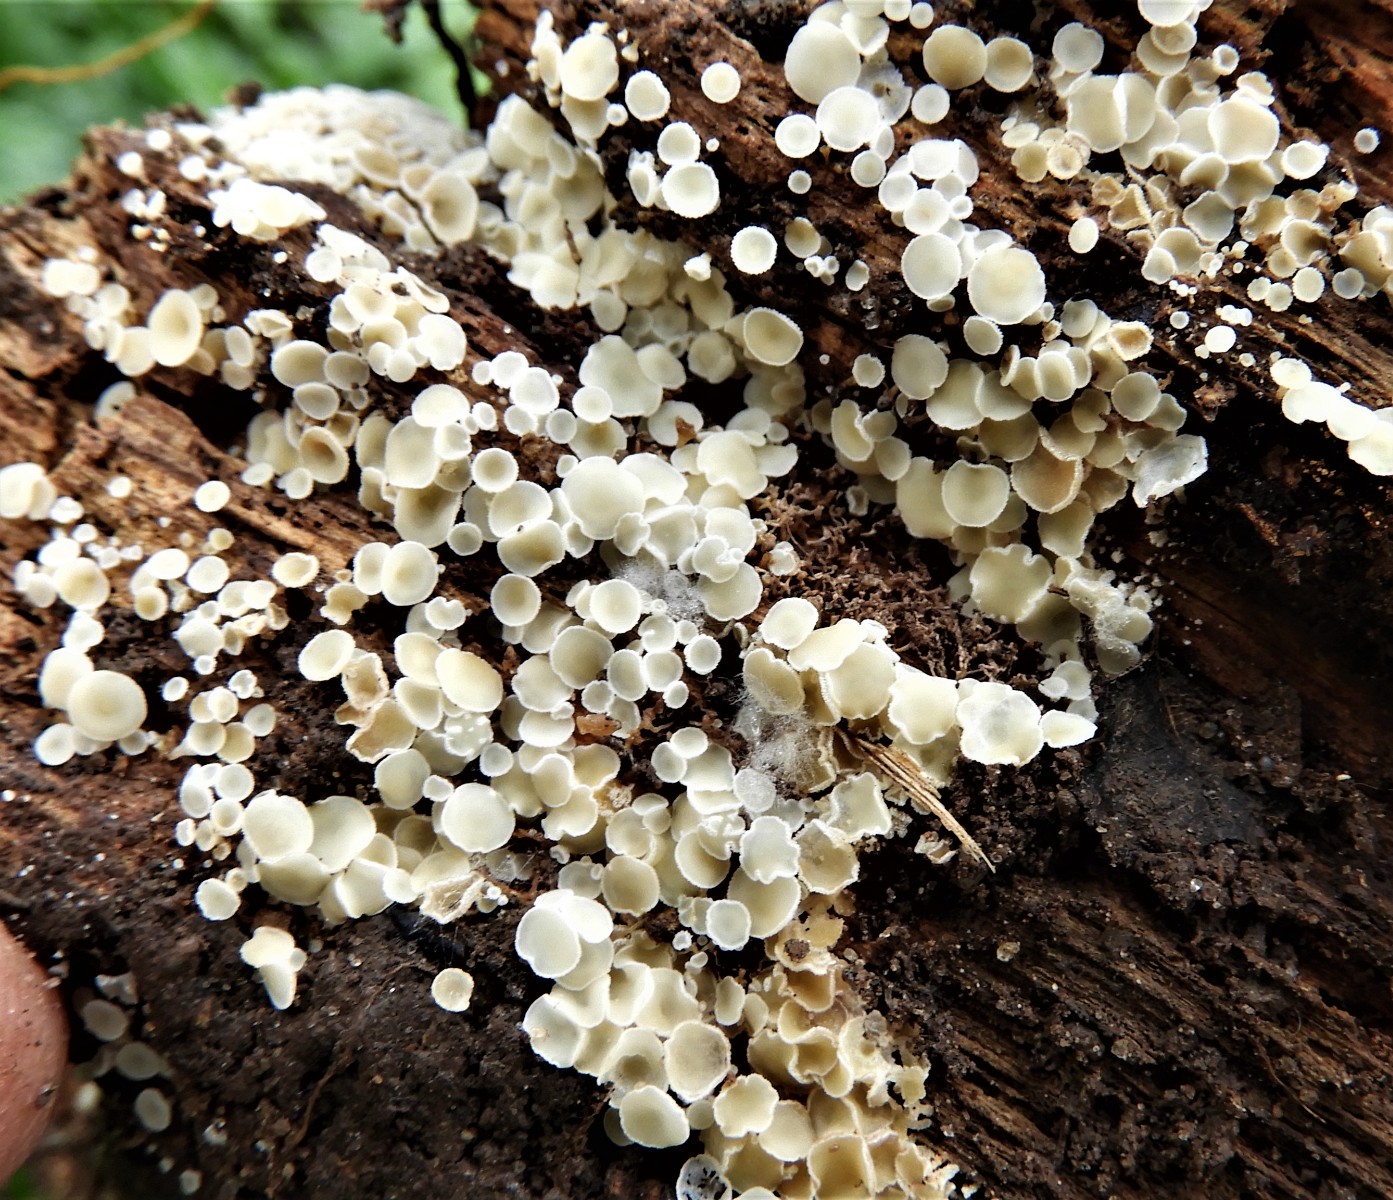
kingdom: Fungi
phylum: Ascomycota
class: Leotiomycetes
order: Helotiales
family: Lachnaceae
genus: Lachnum
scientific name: Lachnum
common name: frynseskive
